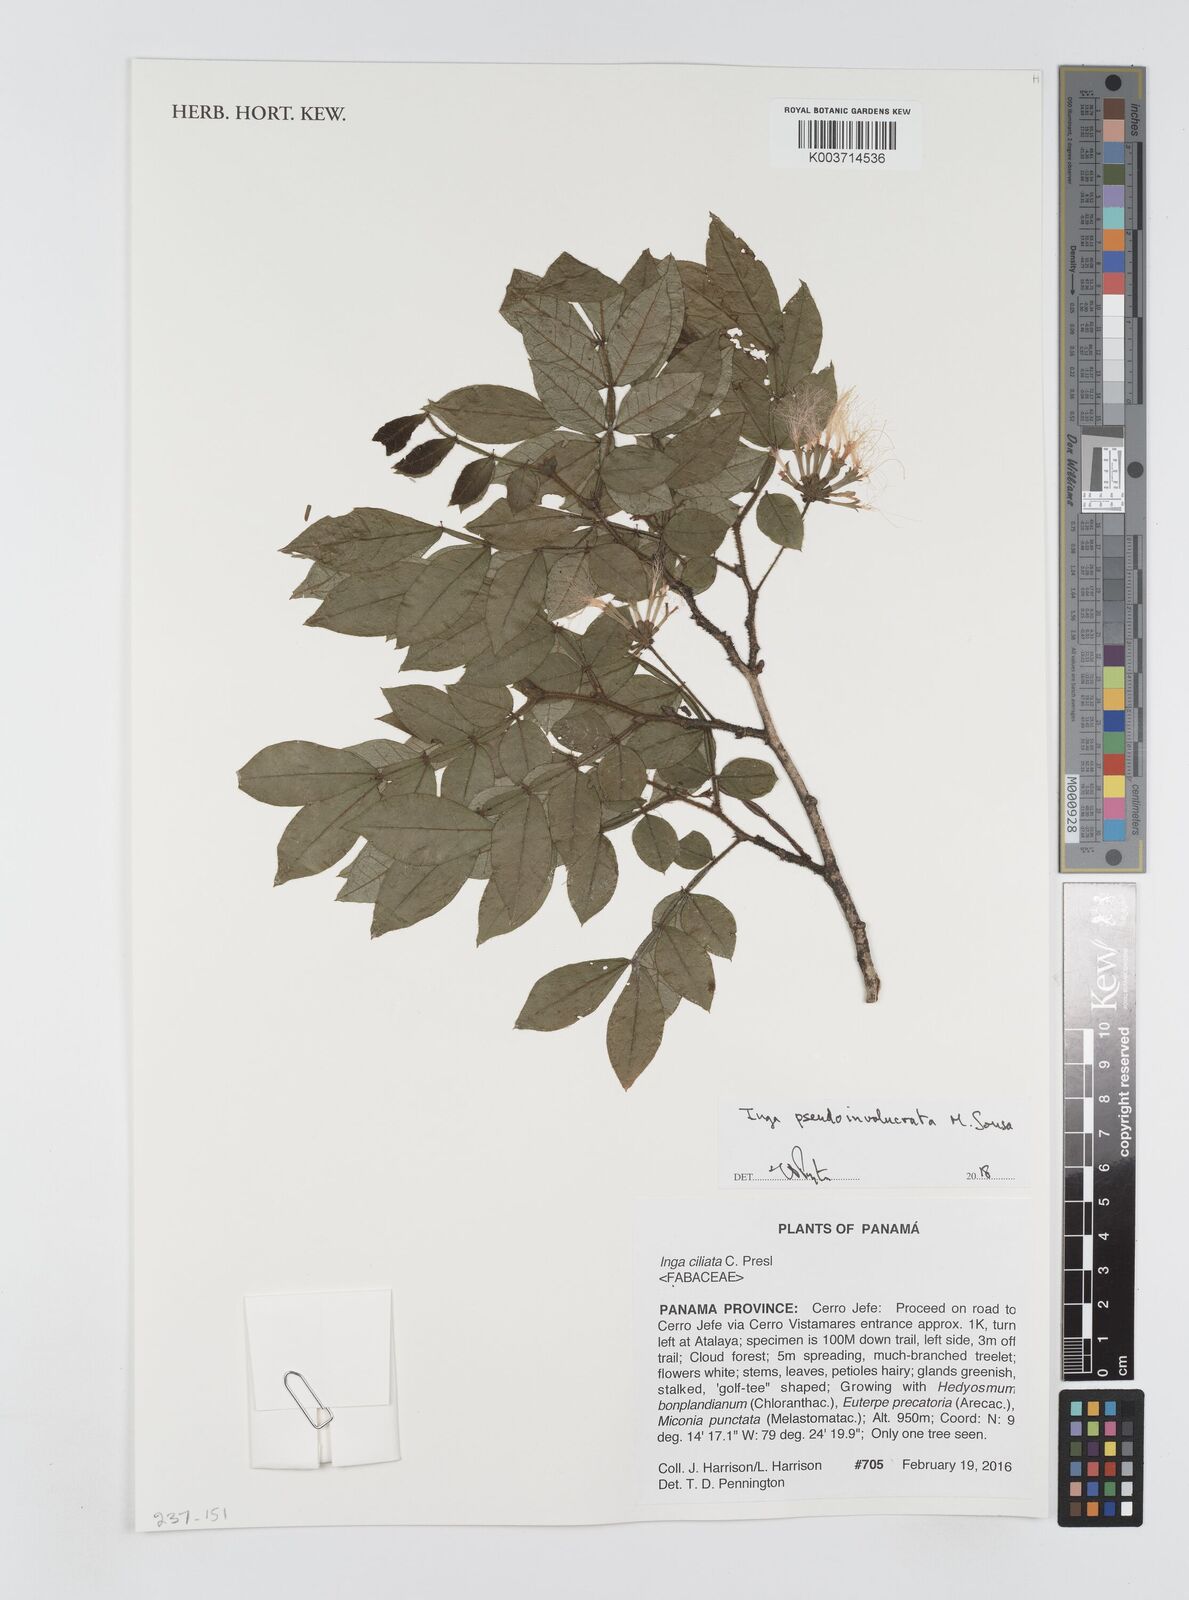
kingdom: Plantae
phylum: Tracheophyta
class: Magnoliopsida
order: Fabales
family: Fabaceae
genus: Inga
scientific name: Inga pseudoinvolucrata
